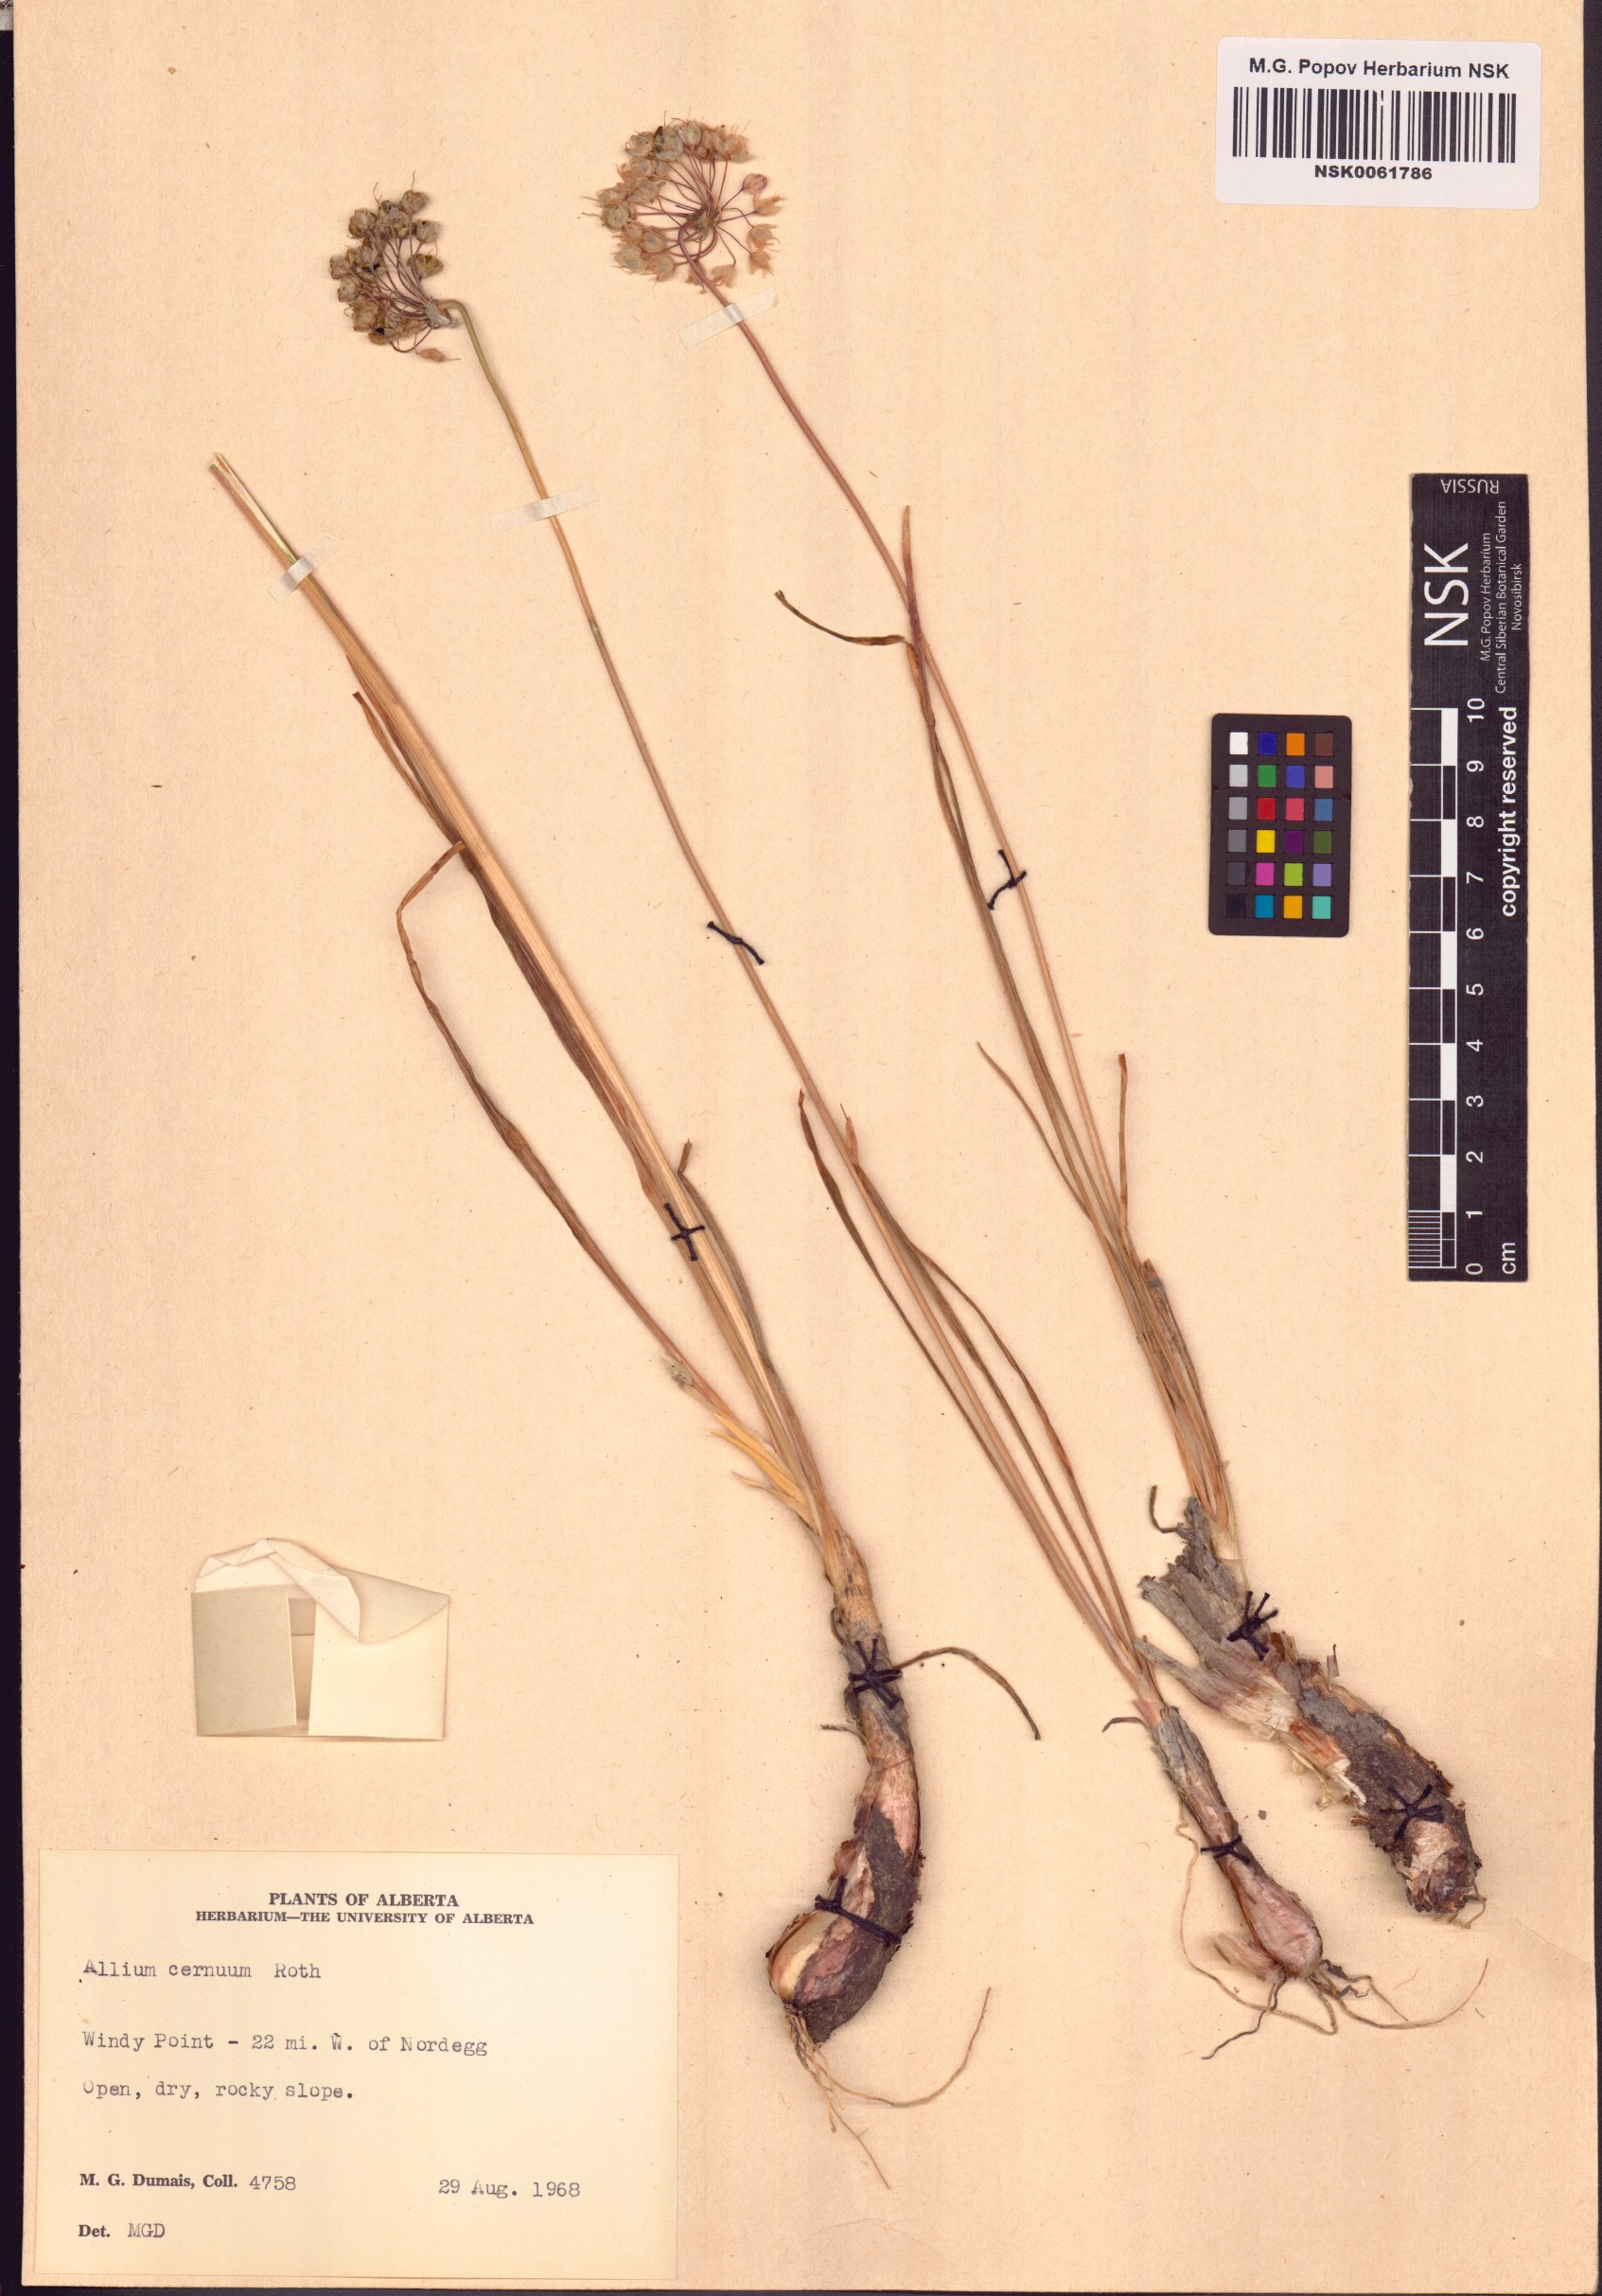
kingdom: Plantae
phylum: Tracheophyta
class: Liliopsida
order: Asparagales
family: Amaryllidaceae
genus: Allium
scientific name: Allium cernuum
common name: Nodding onion
